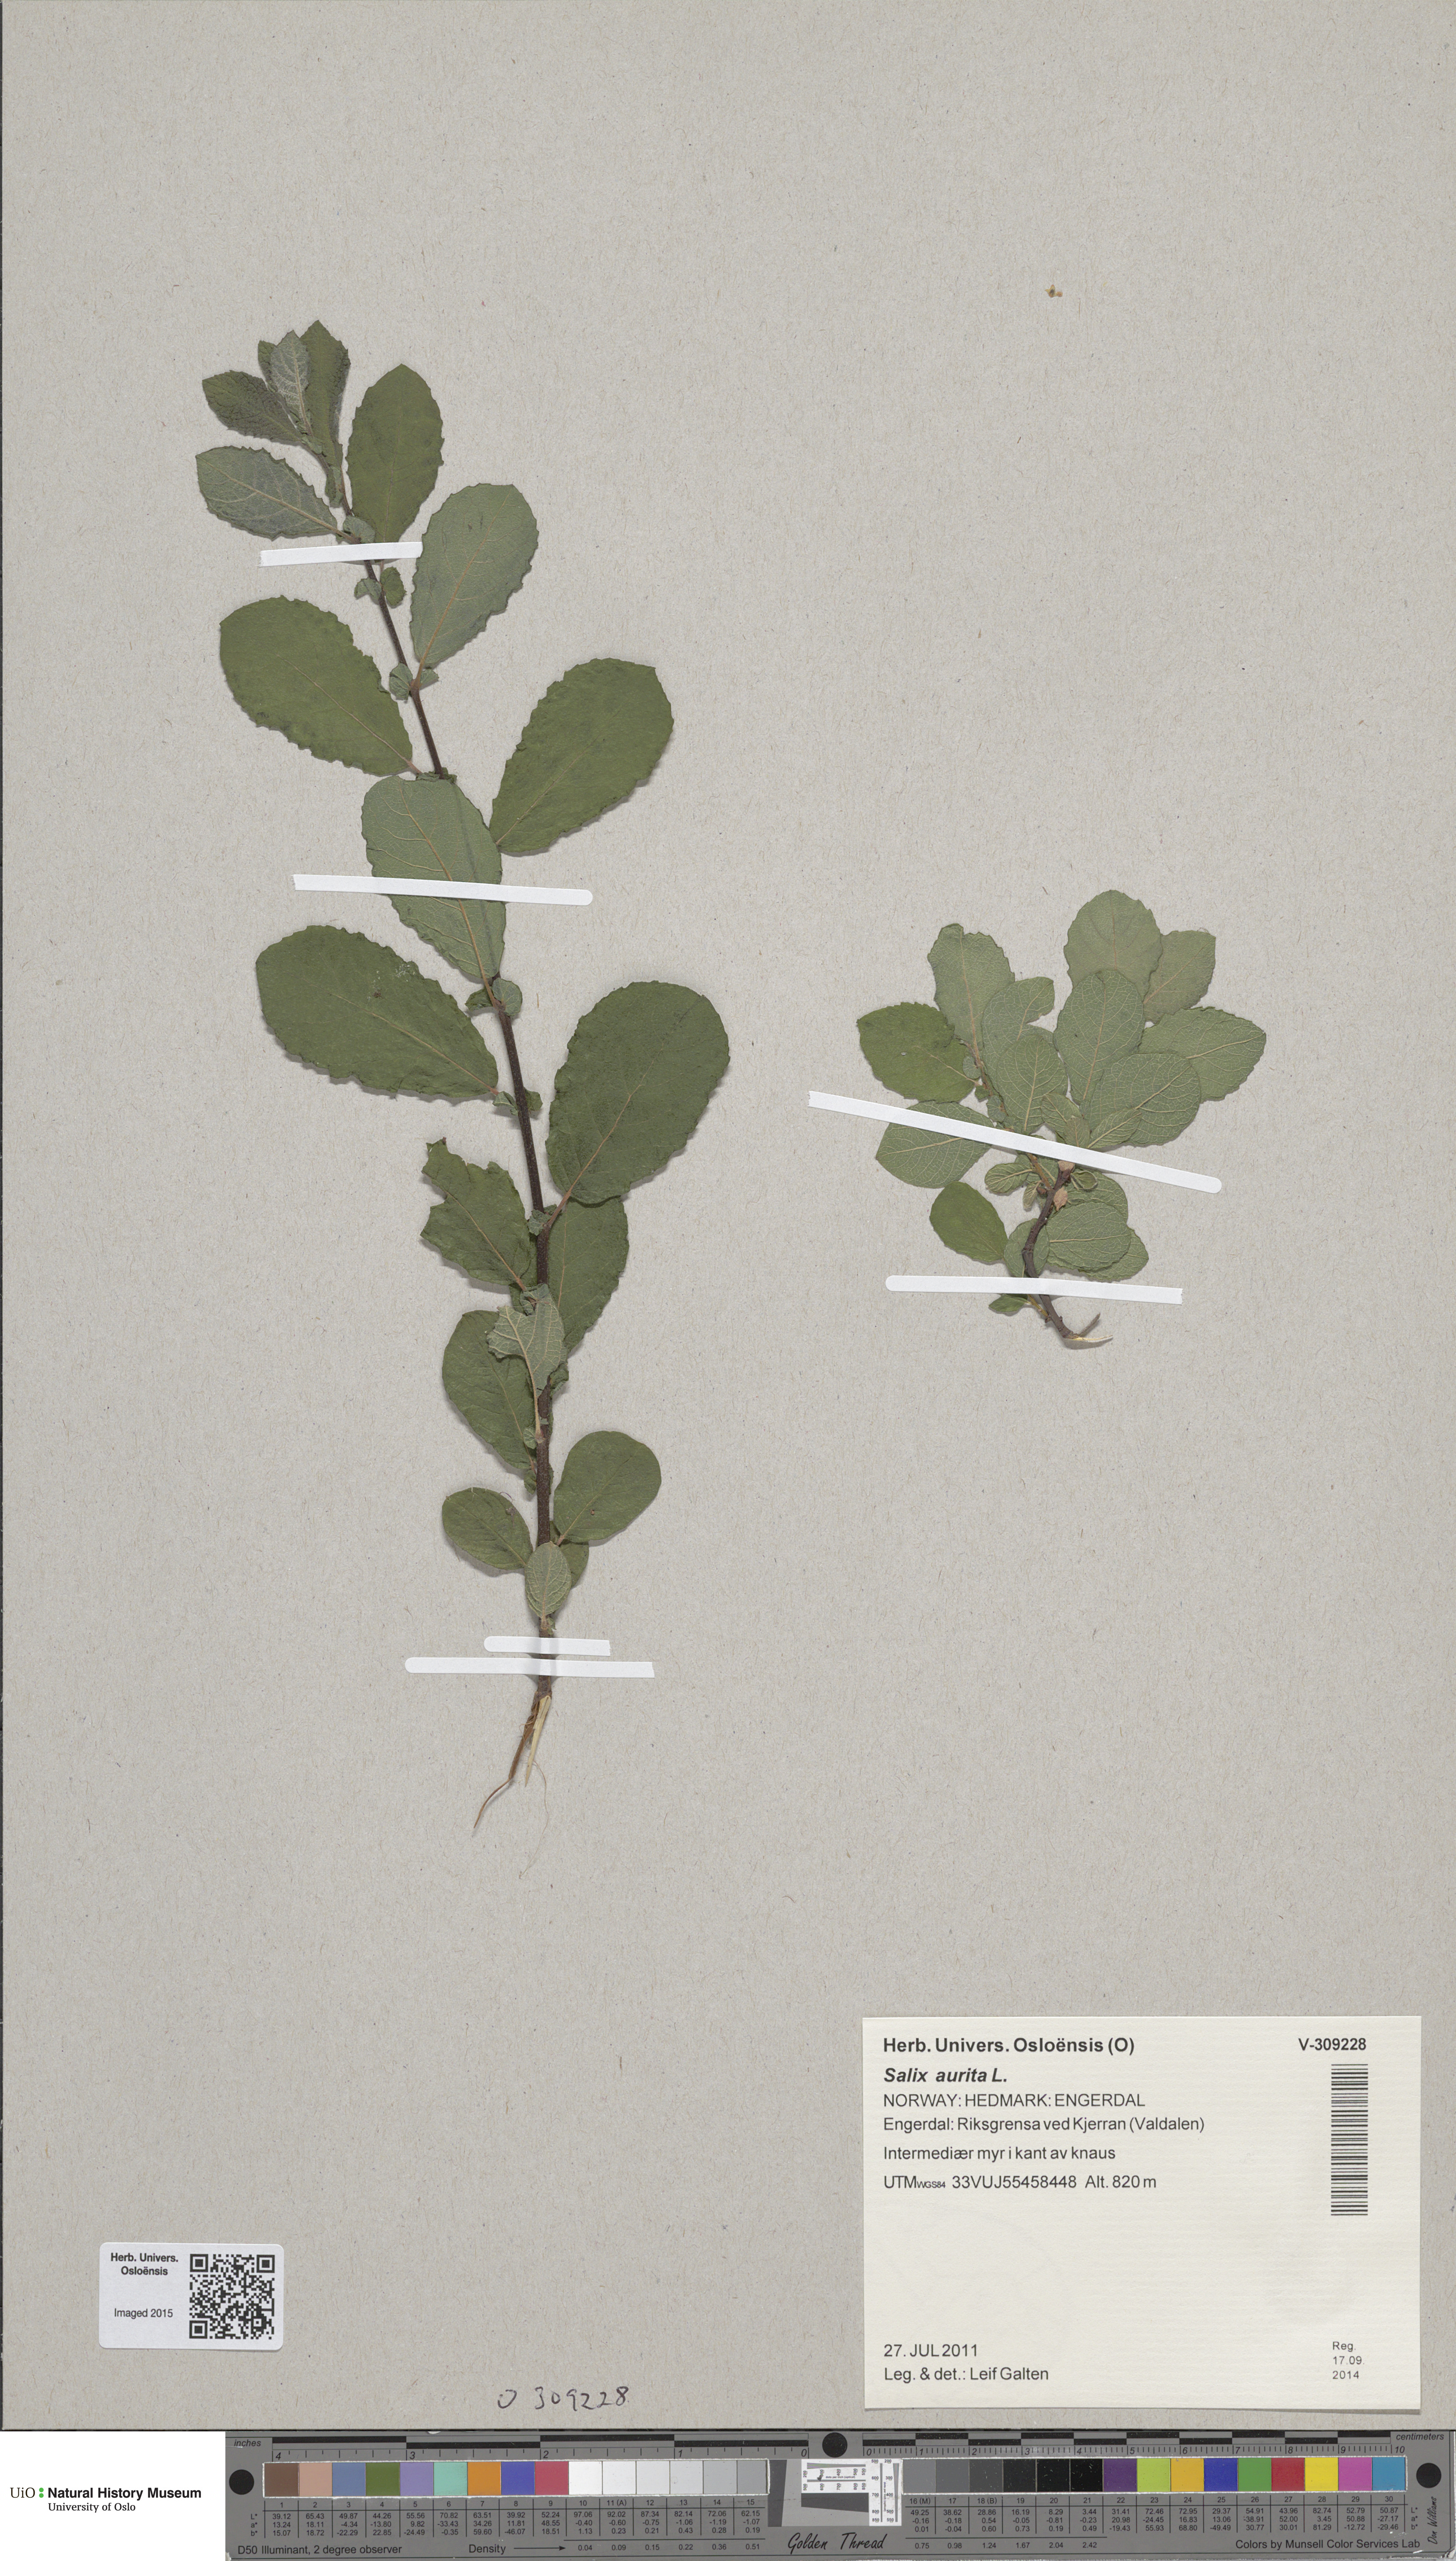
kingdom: Plantae
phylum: Tracheophyta
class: Magnoliopsida
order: Malpighiales
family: Salicaceae
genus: Salix
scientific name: Salix aurita
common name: Eared willow
